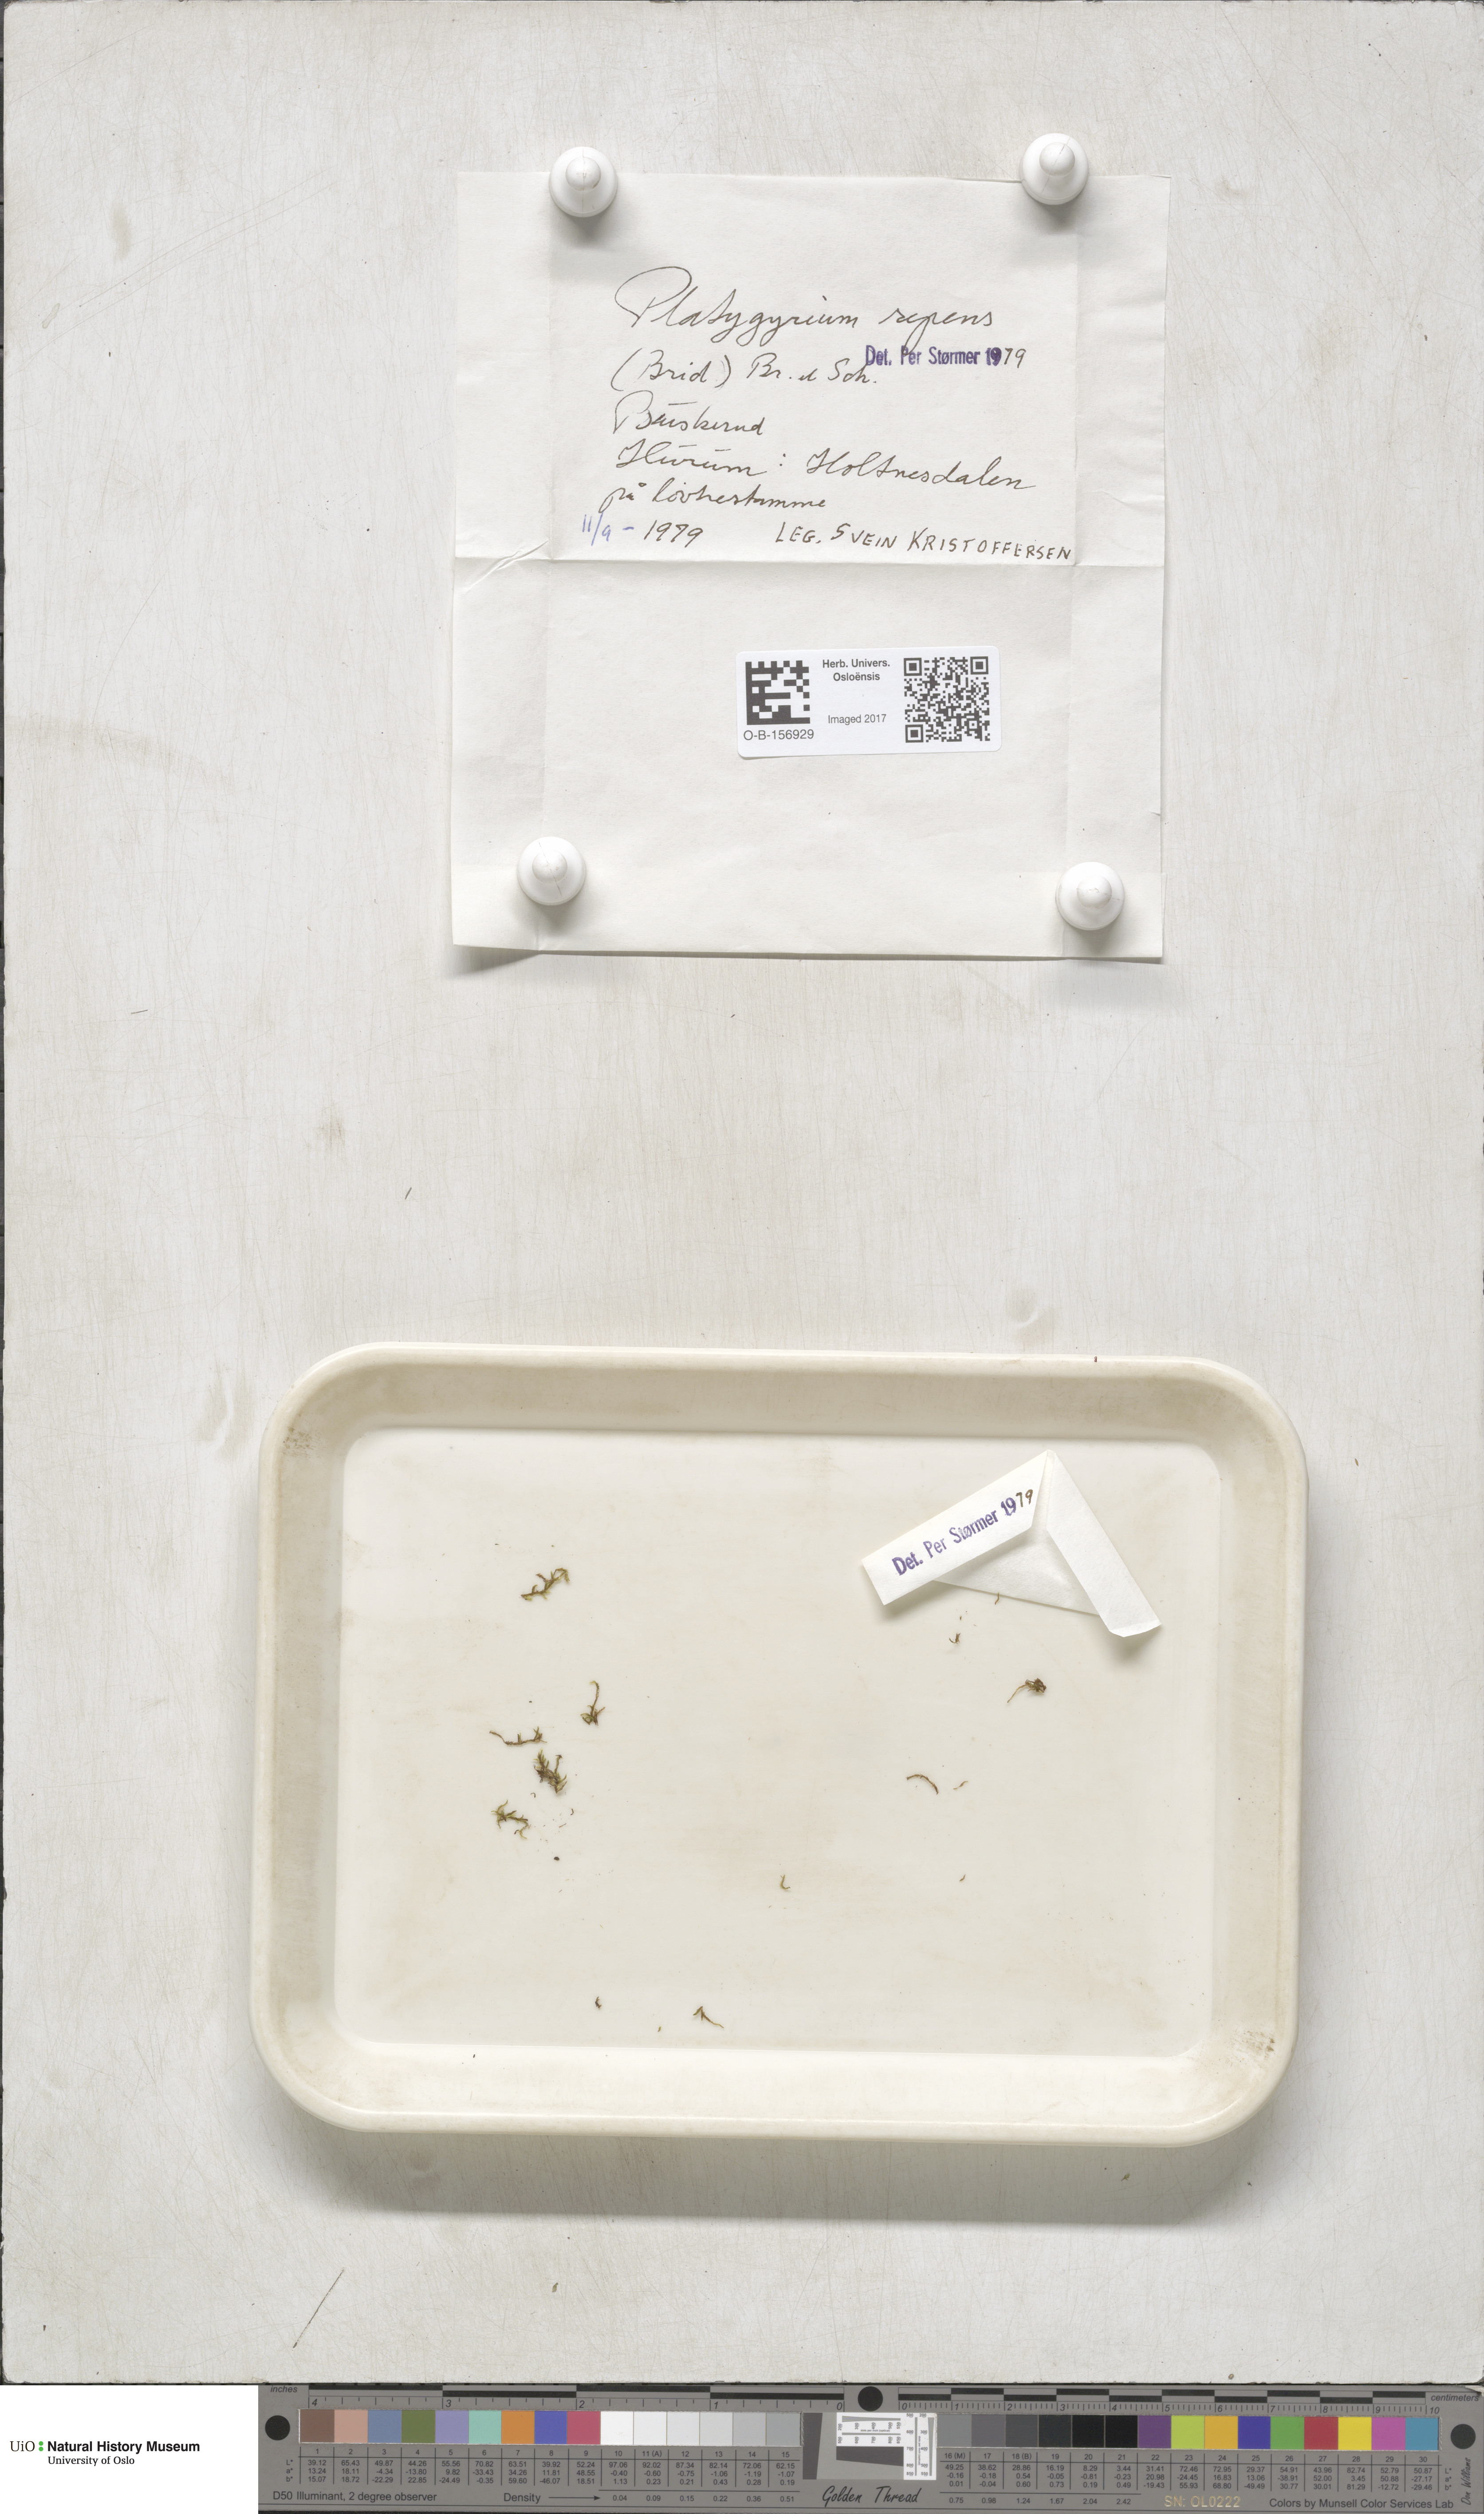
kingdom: Plantae
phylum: Bryophyta
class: Bryopsida
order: Hypnales
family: Pylaisiadelphaceae
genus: Platygyrium
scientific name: Platygyrium repens
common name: Flat-brocade moss
